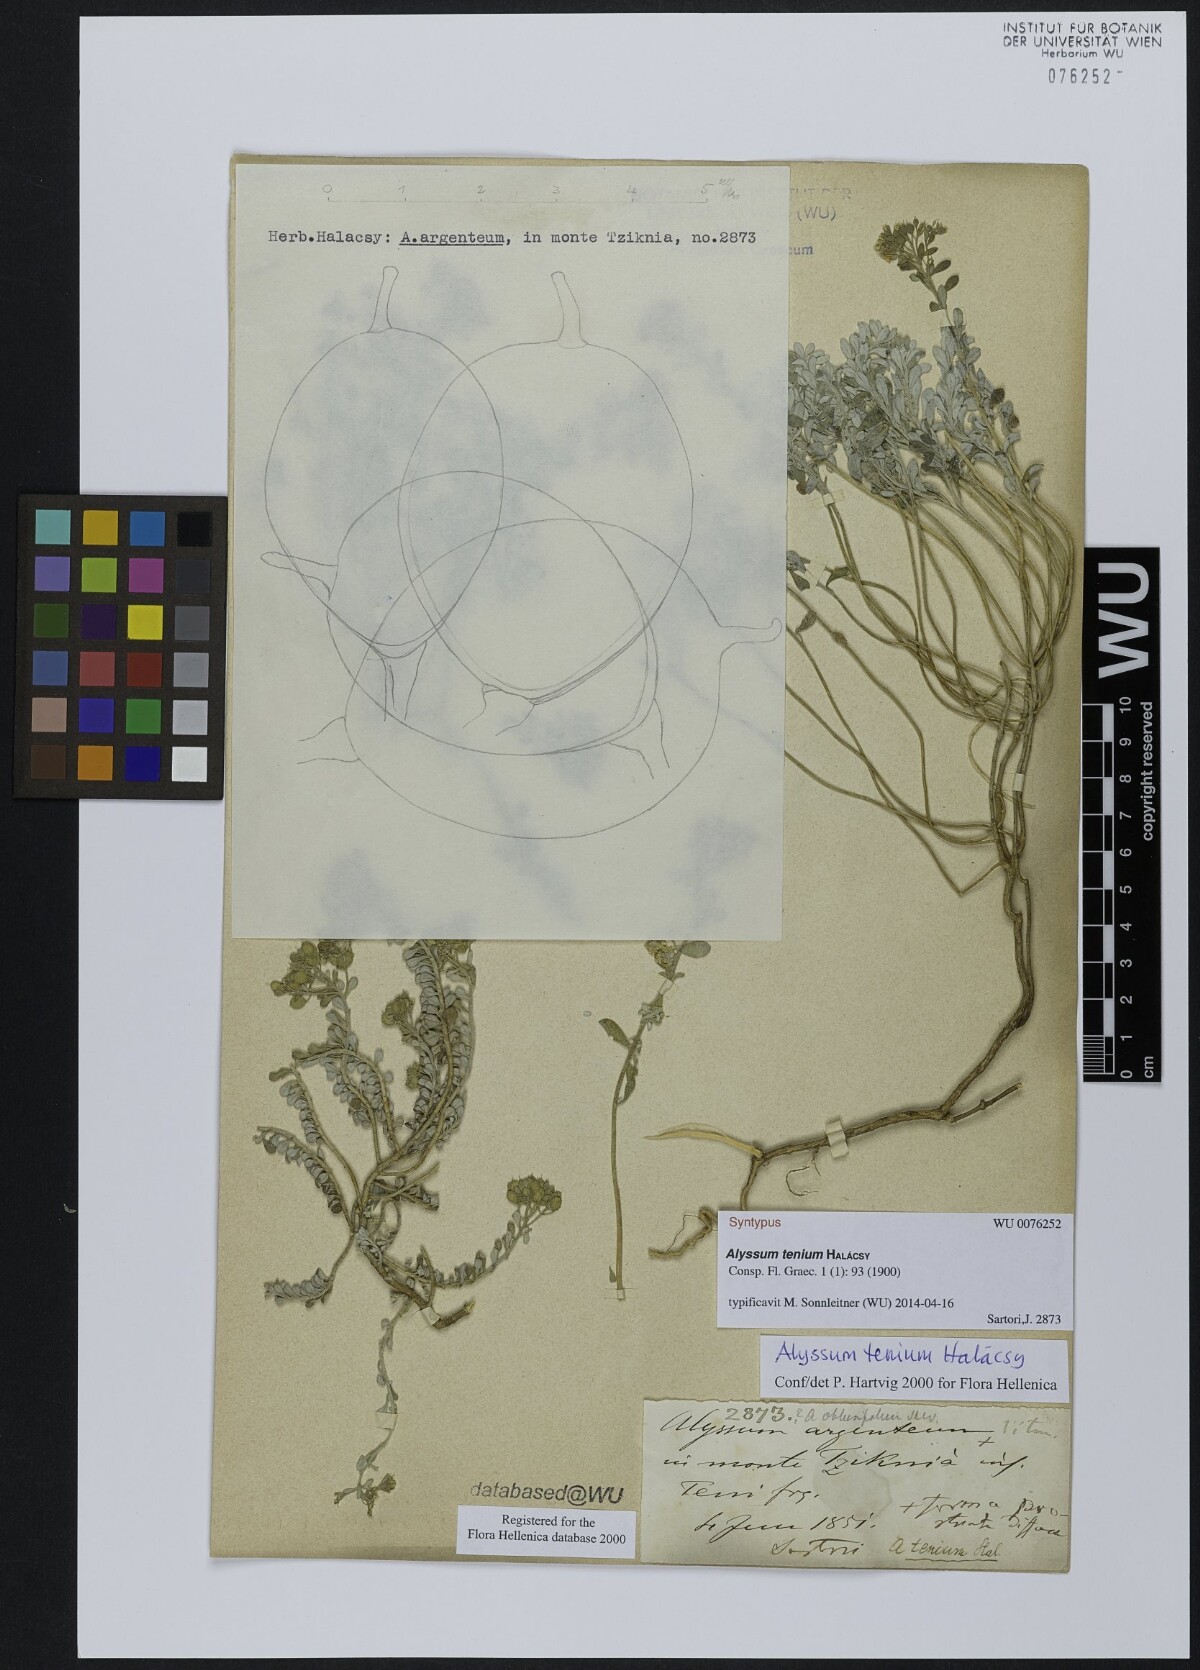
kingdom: Plantae
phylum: Tracheophyta
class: Magnoliopsida
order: Brassicales
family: Brassicaceae
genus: Alyssum
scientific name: Alyssum tenium
